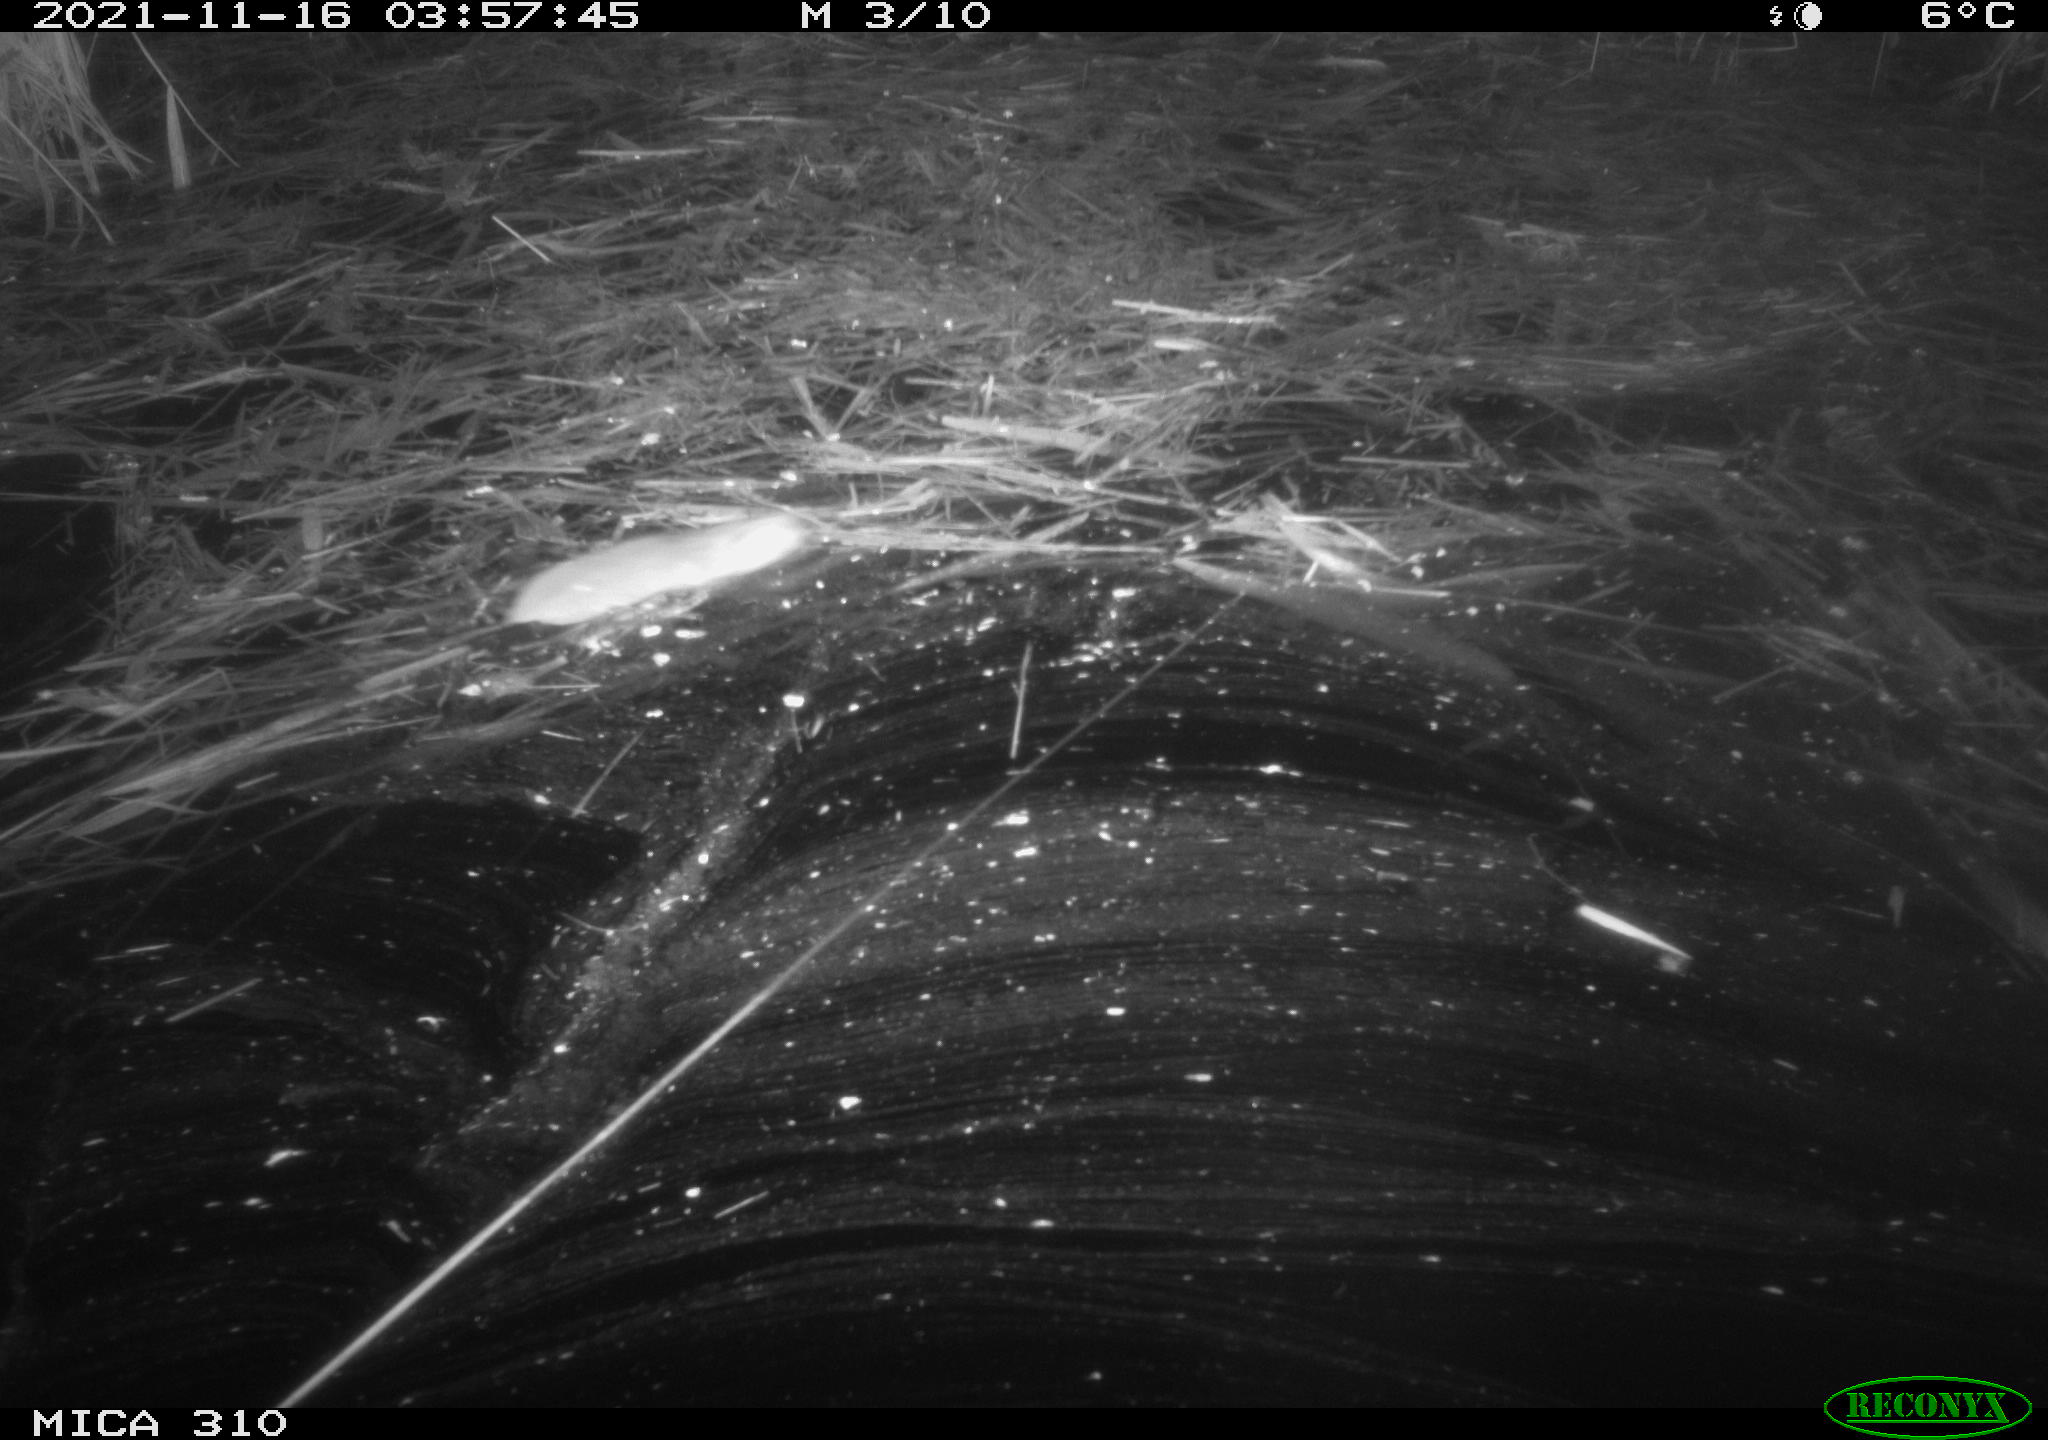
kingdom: Animalia
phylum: Chordata
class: Mammalia
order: Rodentia
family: Muridae
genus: Rattus
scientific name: Rattus norvegicus
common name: Brown rat
